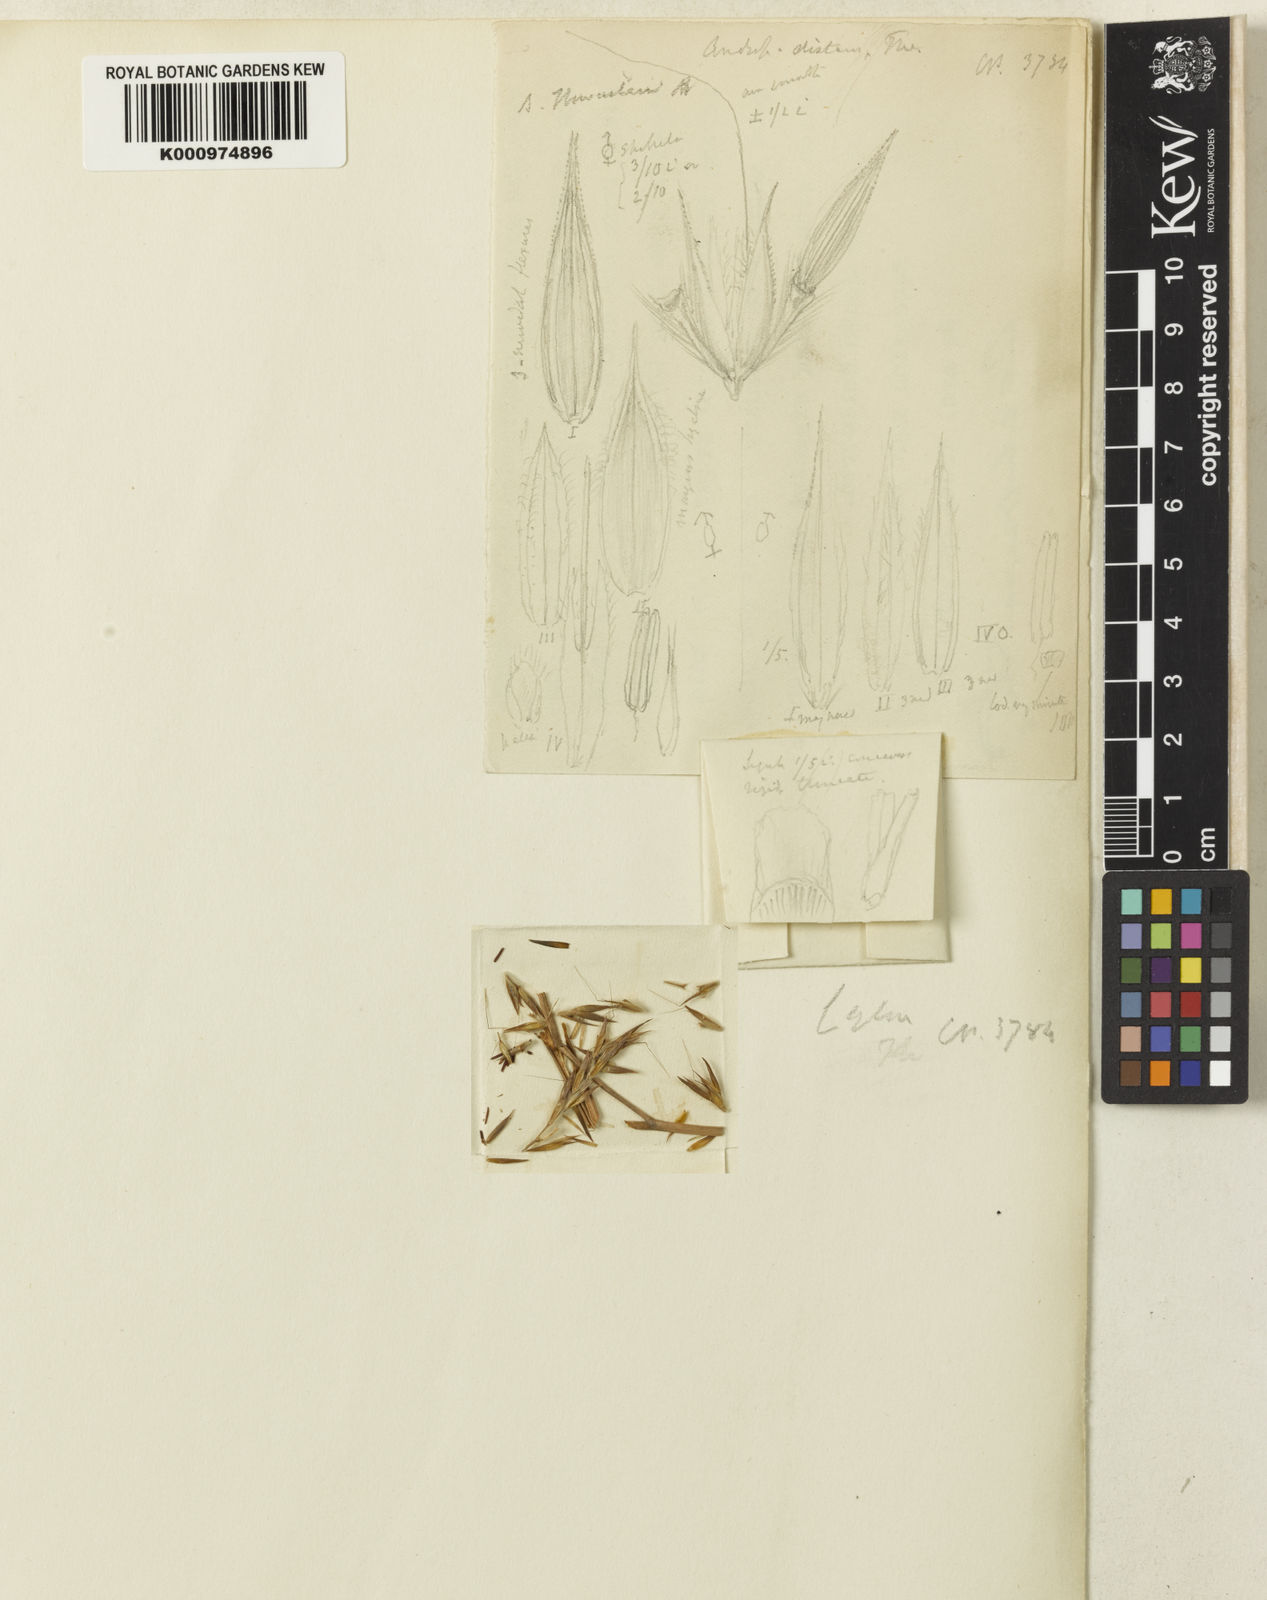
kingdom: Plantae
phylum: Tracheophyta
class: Liliopsida
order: Poales
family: Poaceae
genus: Cymbopogon
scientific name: Cymbopogon nardus
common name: Giant turpentine grass
